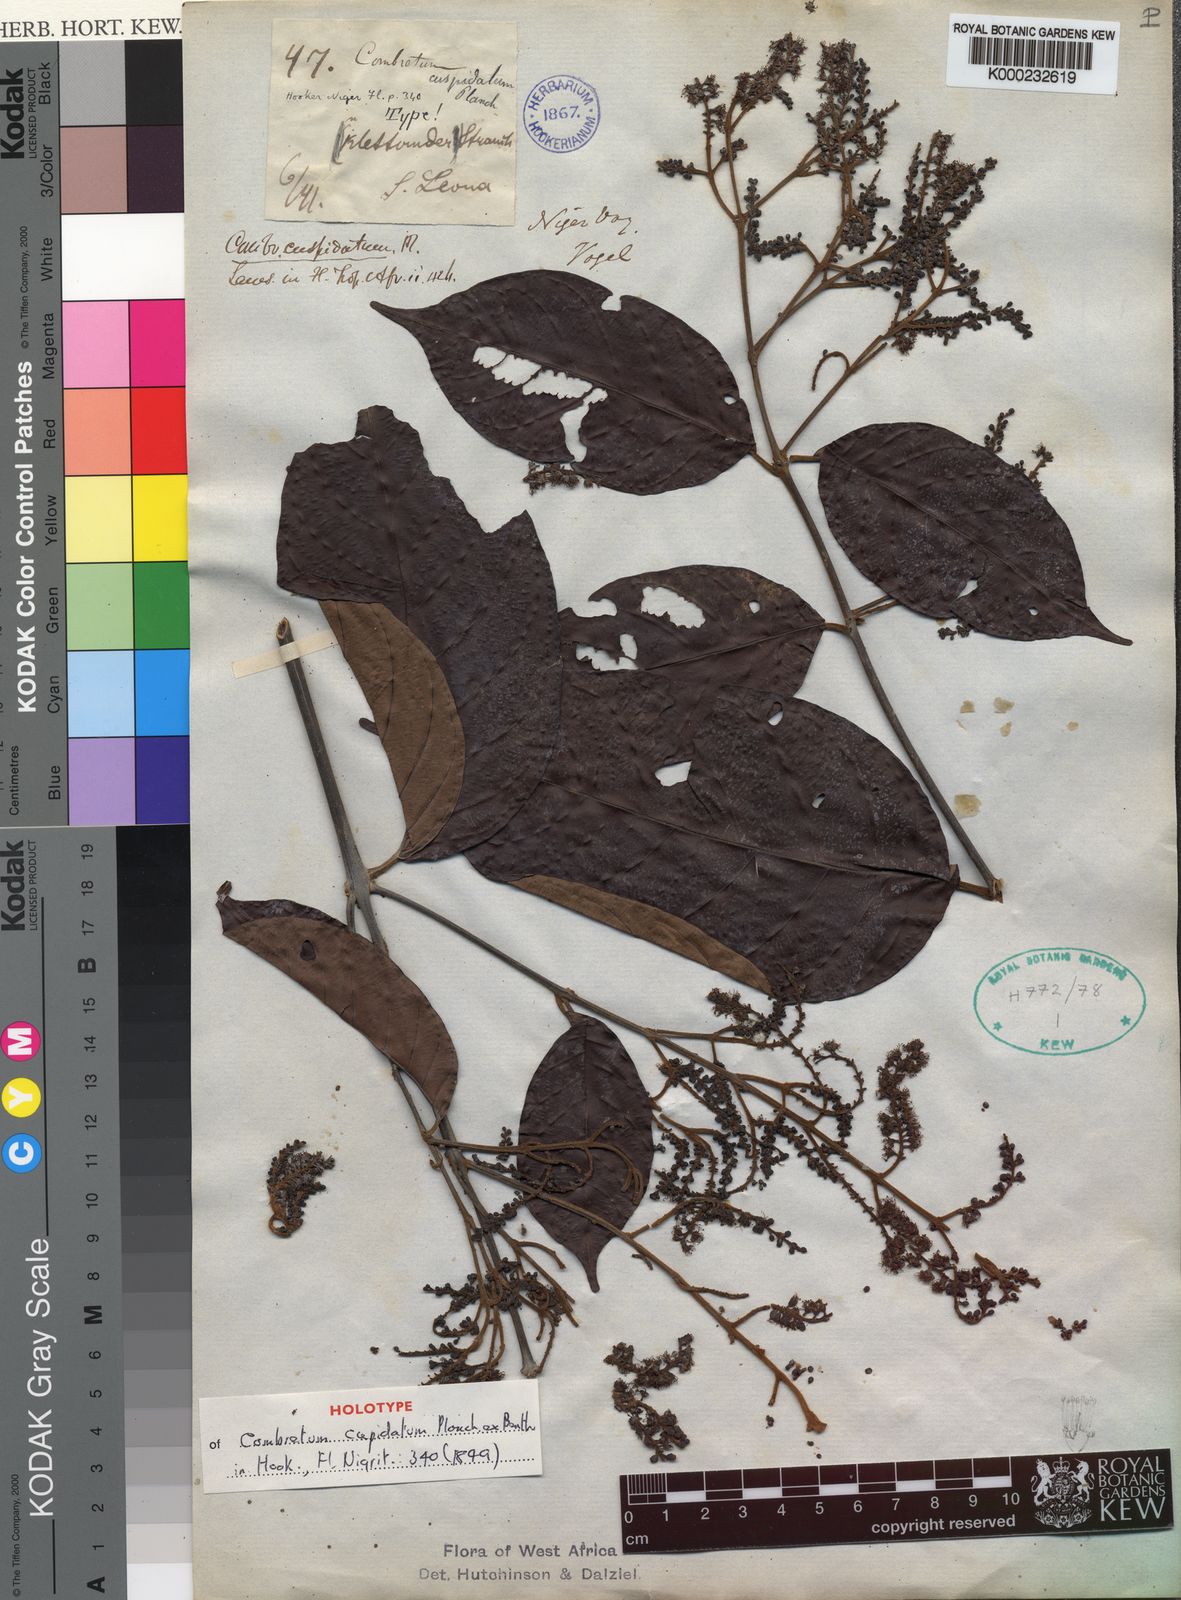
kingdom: Plantae
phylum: Tracheophyta
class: Magnoliopsida
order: Myrtales
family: Combretaceae
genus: Combretum
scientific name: Combretum cuspidatum
